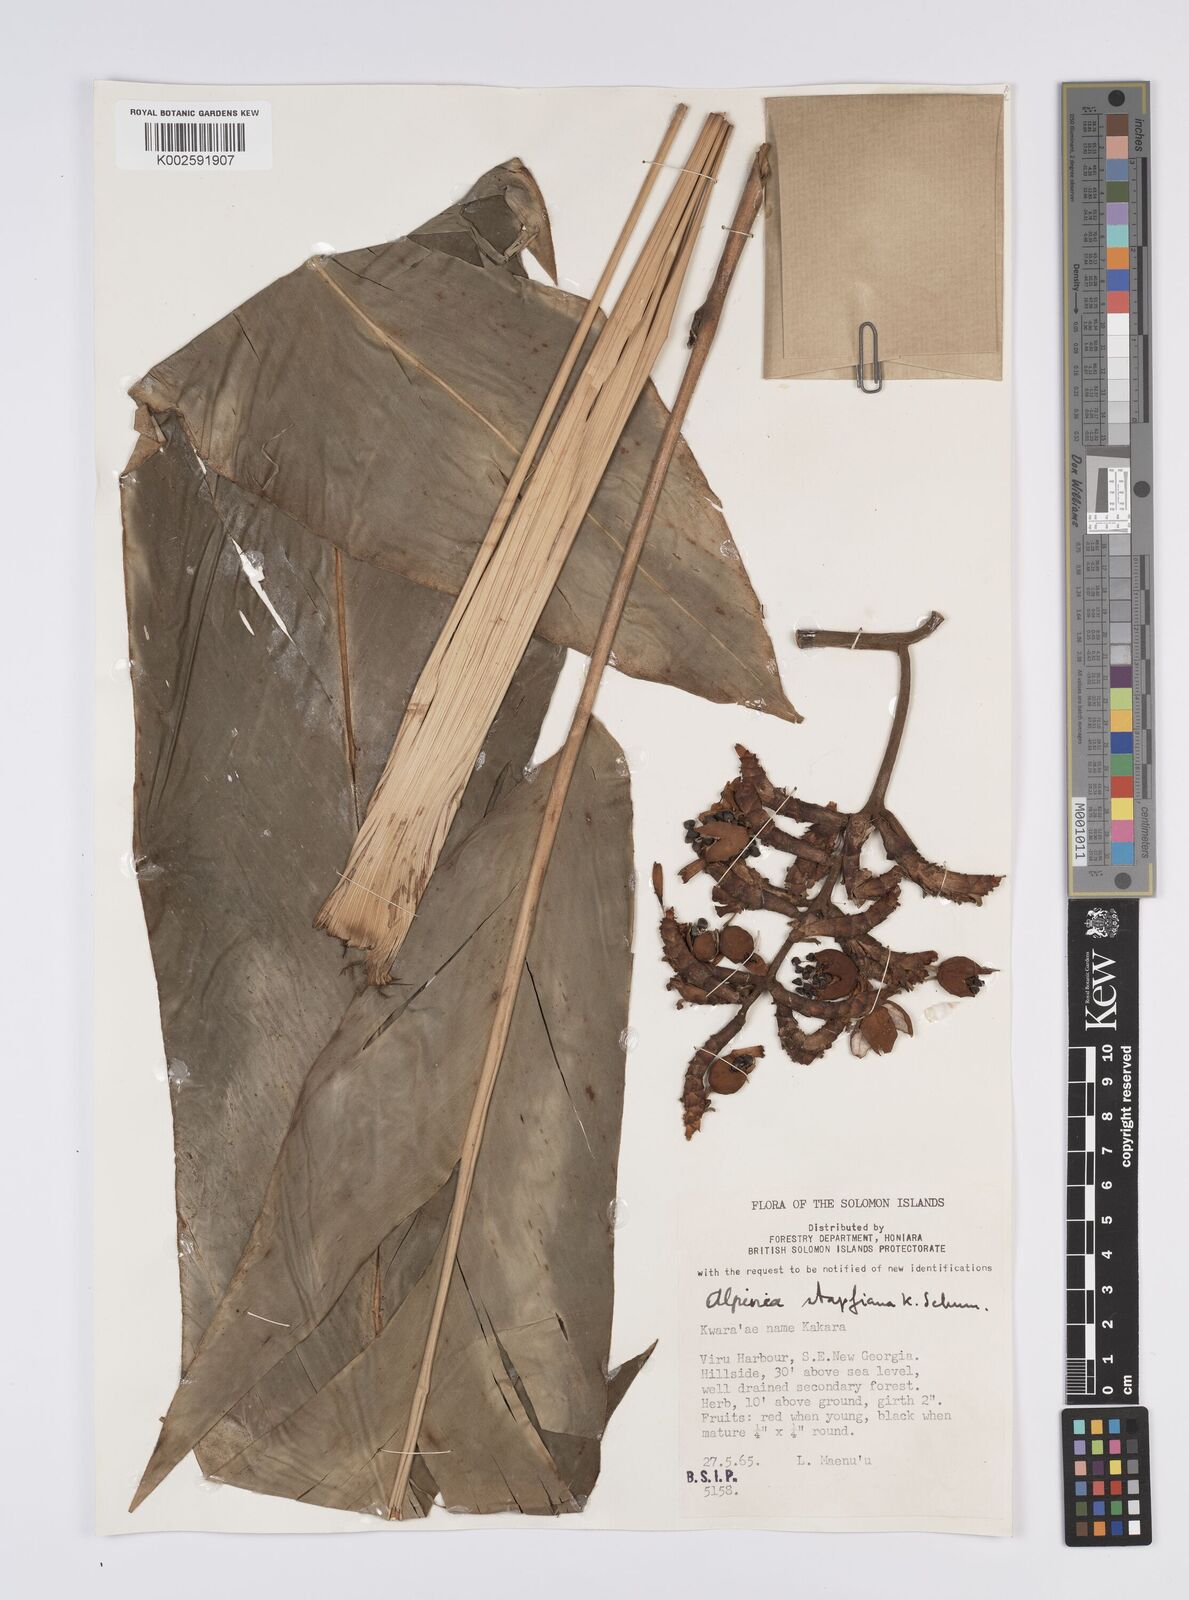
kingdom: Plantae
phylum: Tracheophyta
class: Liliopsida
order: Zingiberales
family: Zingiberaceae
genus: Alpinia
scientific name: Alpinia pulchra
